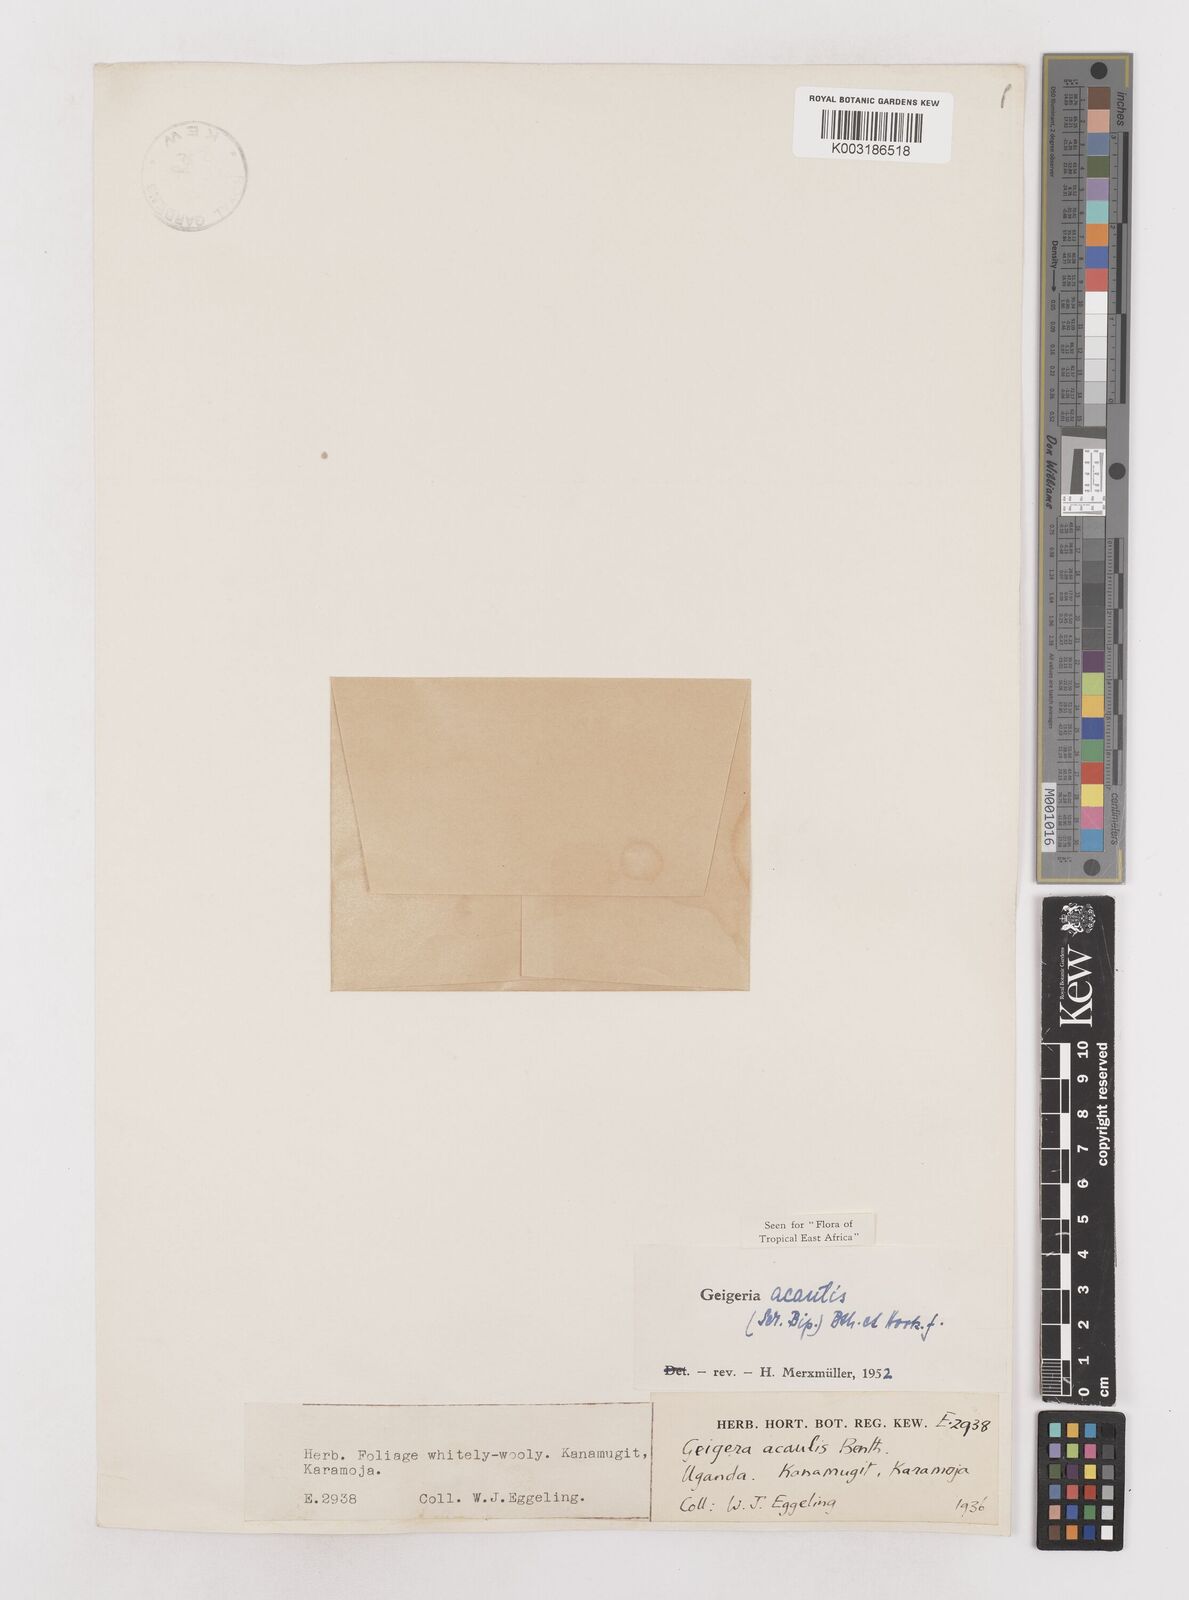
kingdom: Plantae
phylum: Tracheophyta
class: Magnoliopsida
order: Asterales
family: Asteraceae
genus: Geigeria
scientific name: Geigeria acaulis
